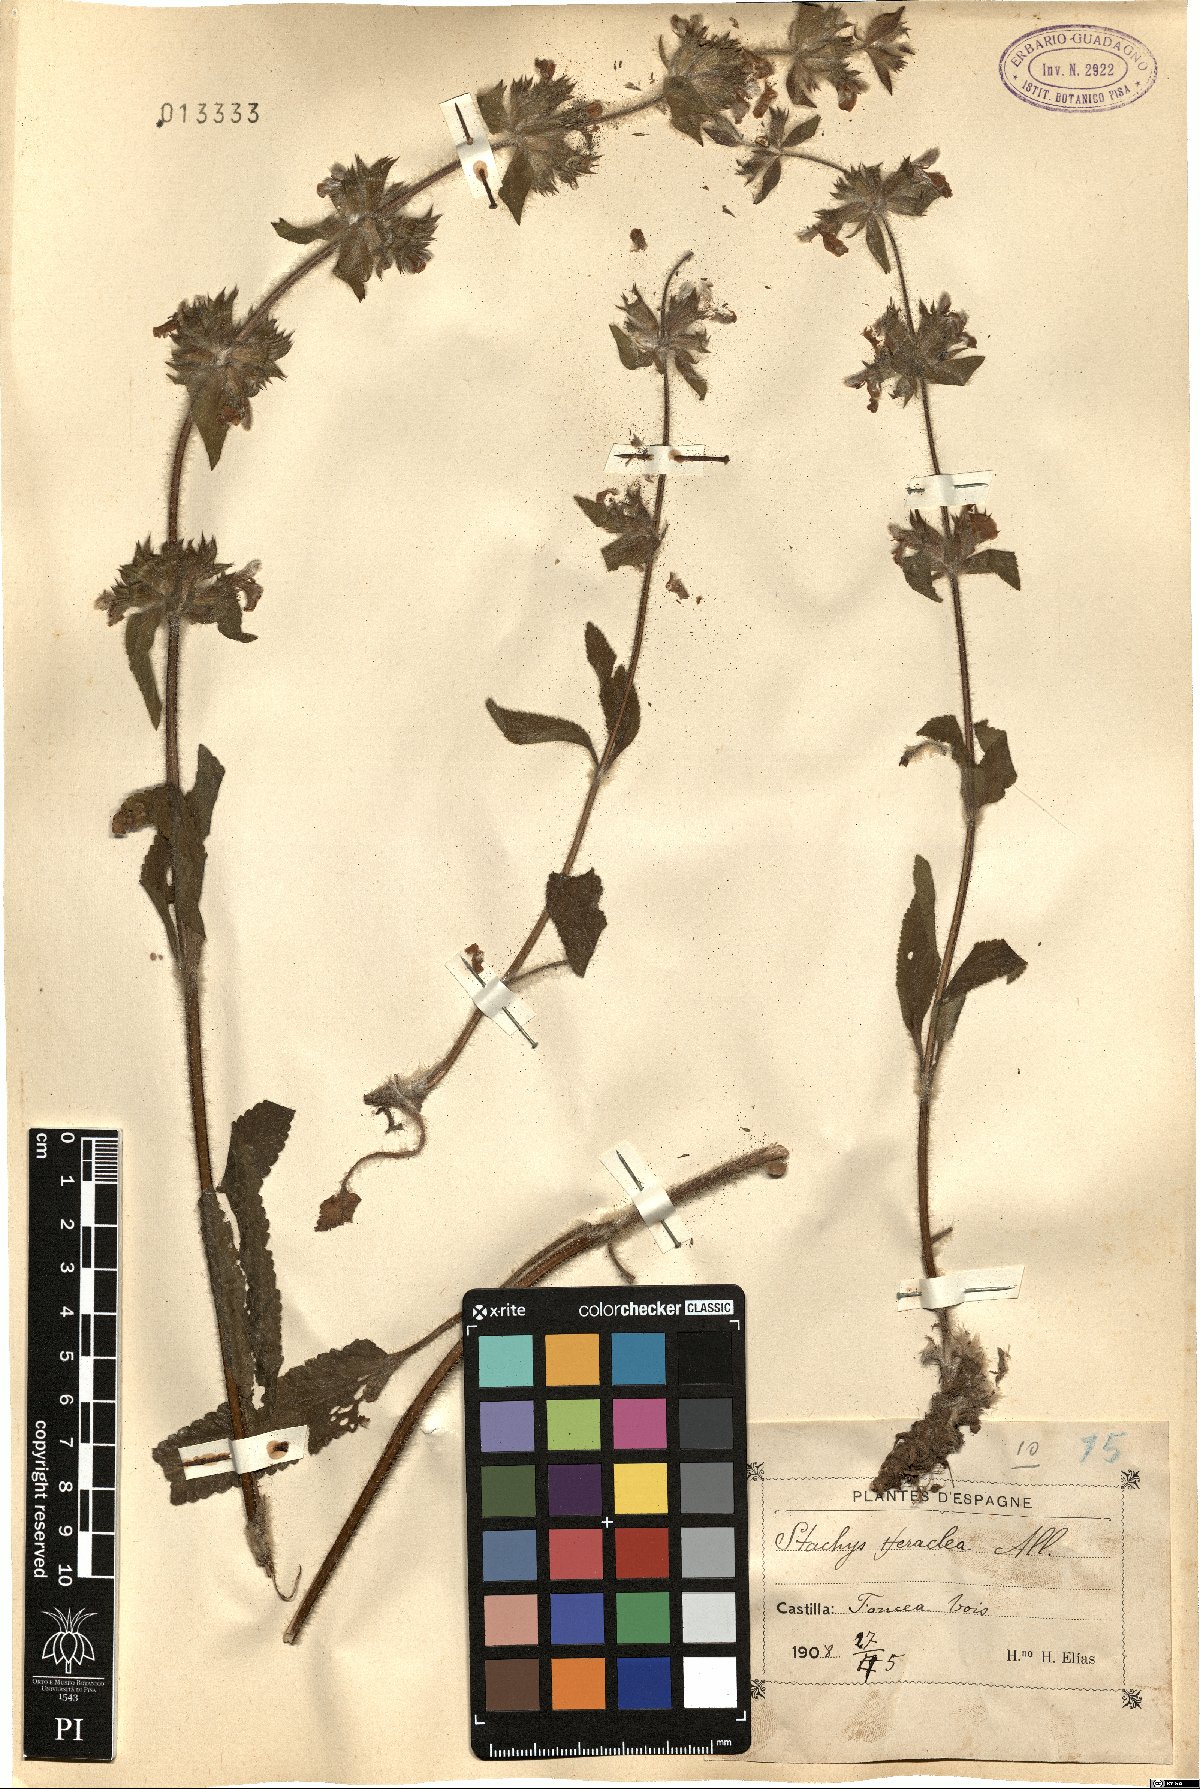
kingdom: Plantae
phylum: Tracheophyta
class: Magnoliopsida
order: Lamiales
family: Lamiaceae
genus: Stachys
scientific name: Stachys heraclea
